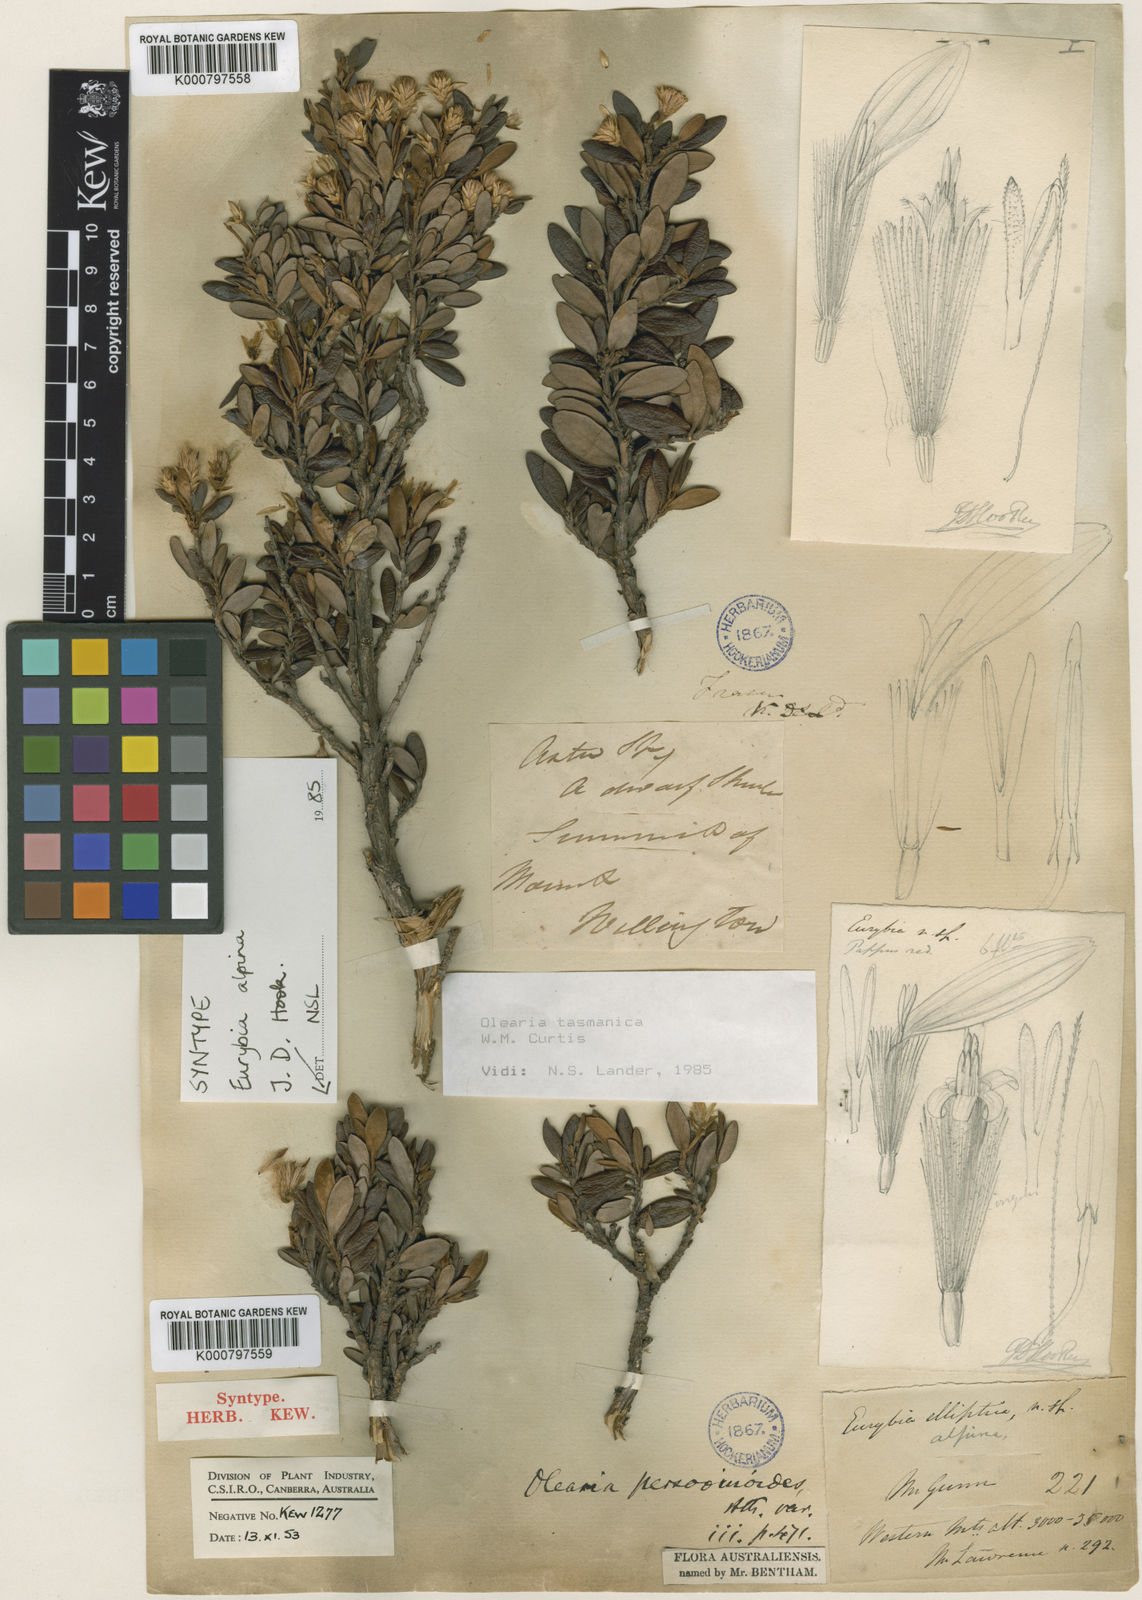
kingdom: Plantae
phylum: Tracheophyta
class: Magnoliopsida
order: Asterales
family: Asteraceae
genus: Olearia
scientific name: Olearia tasmanica
